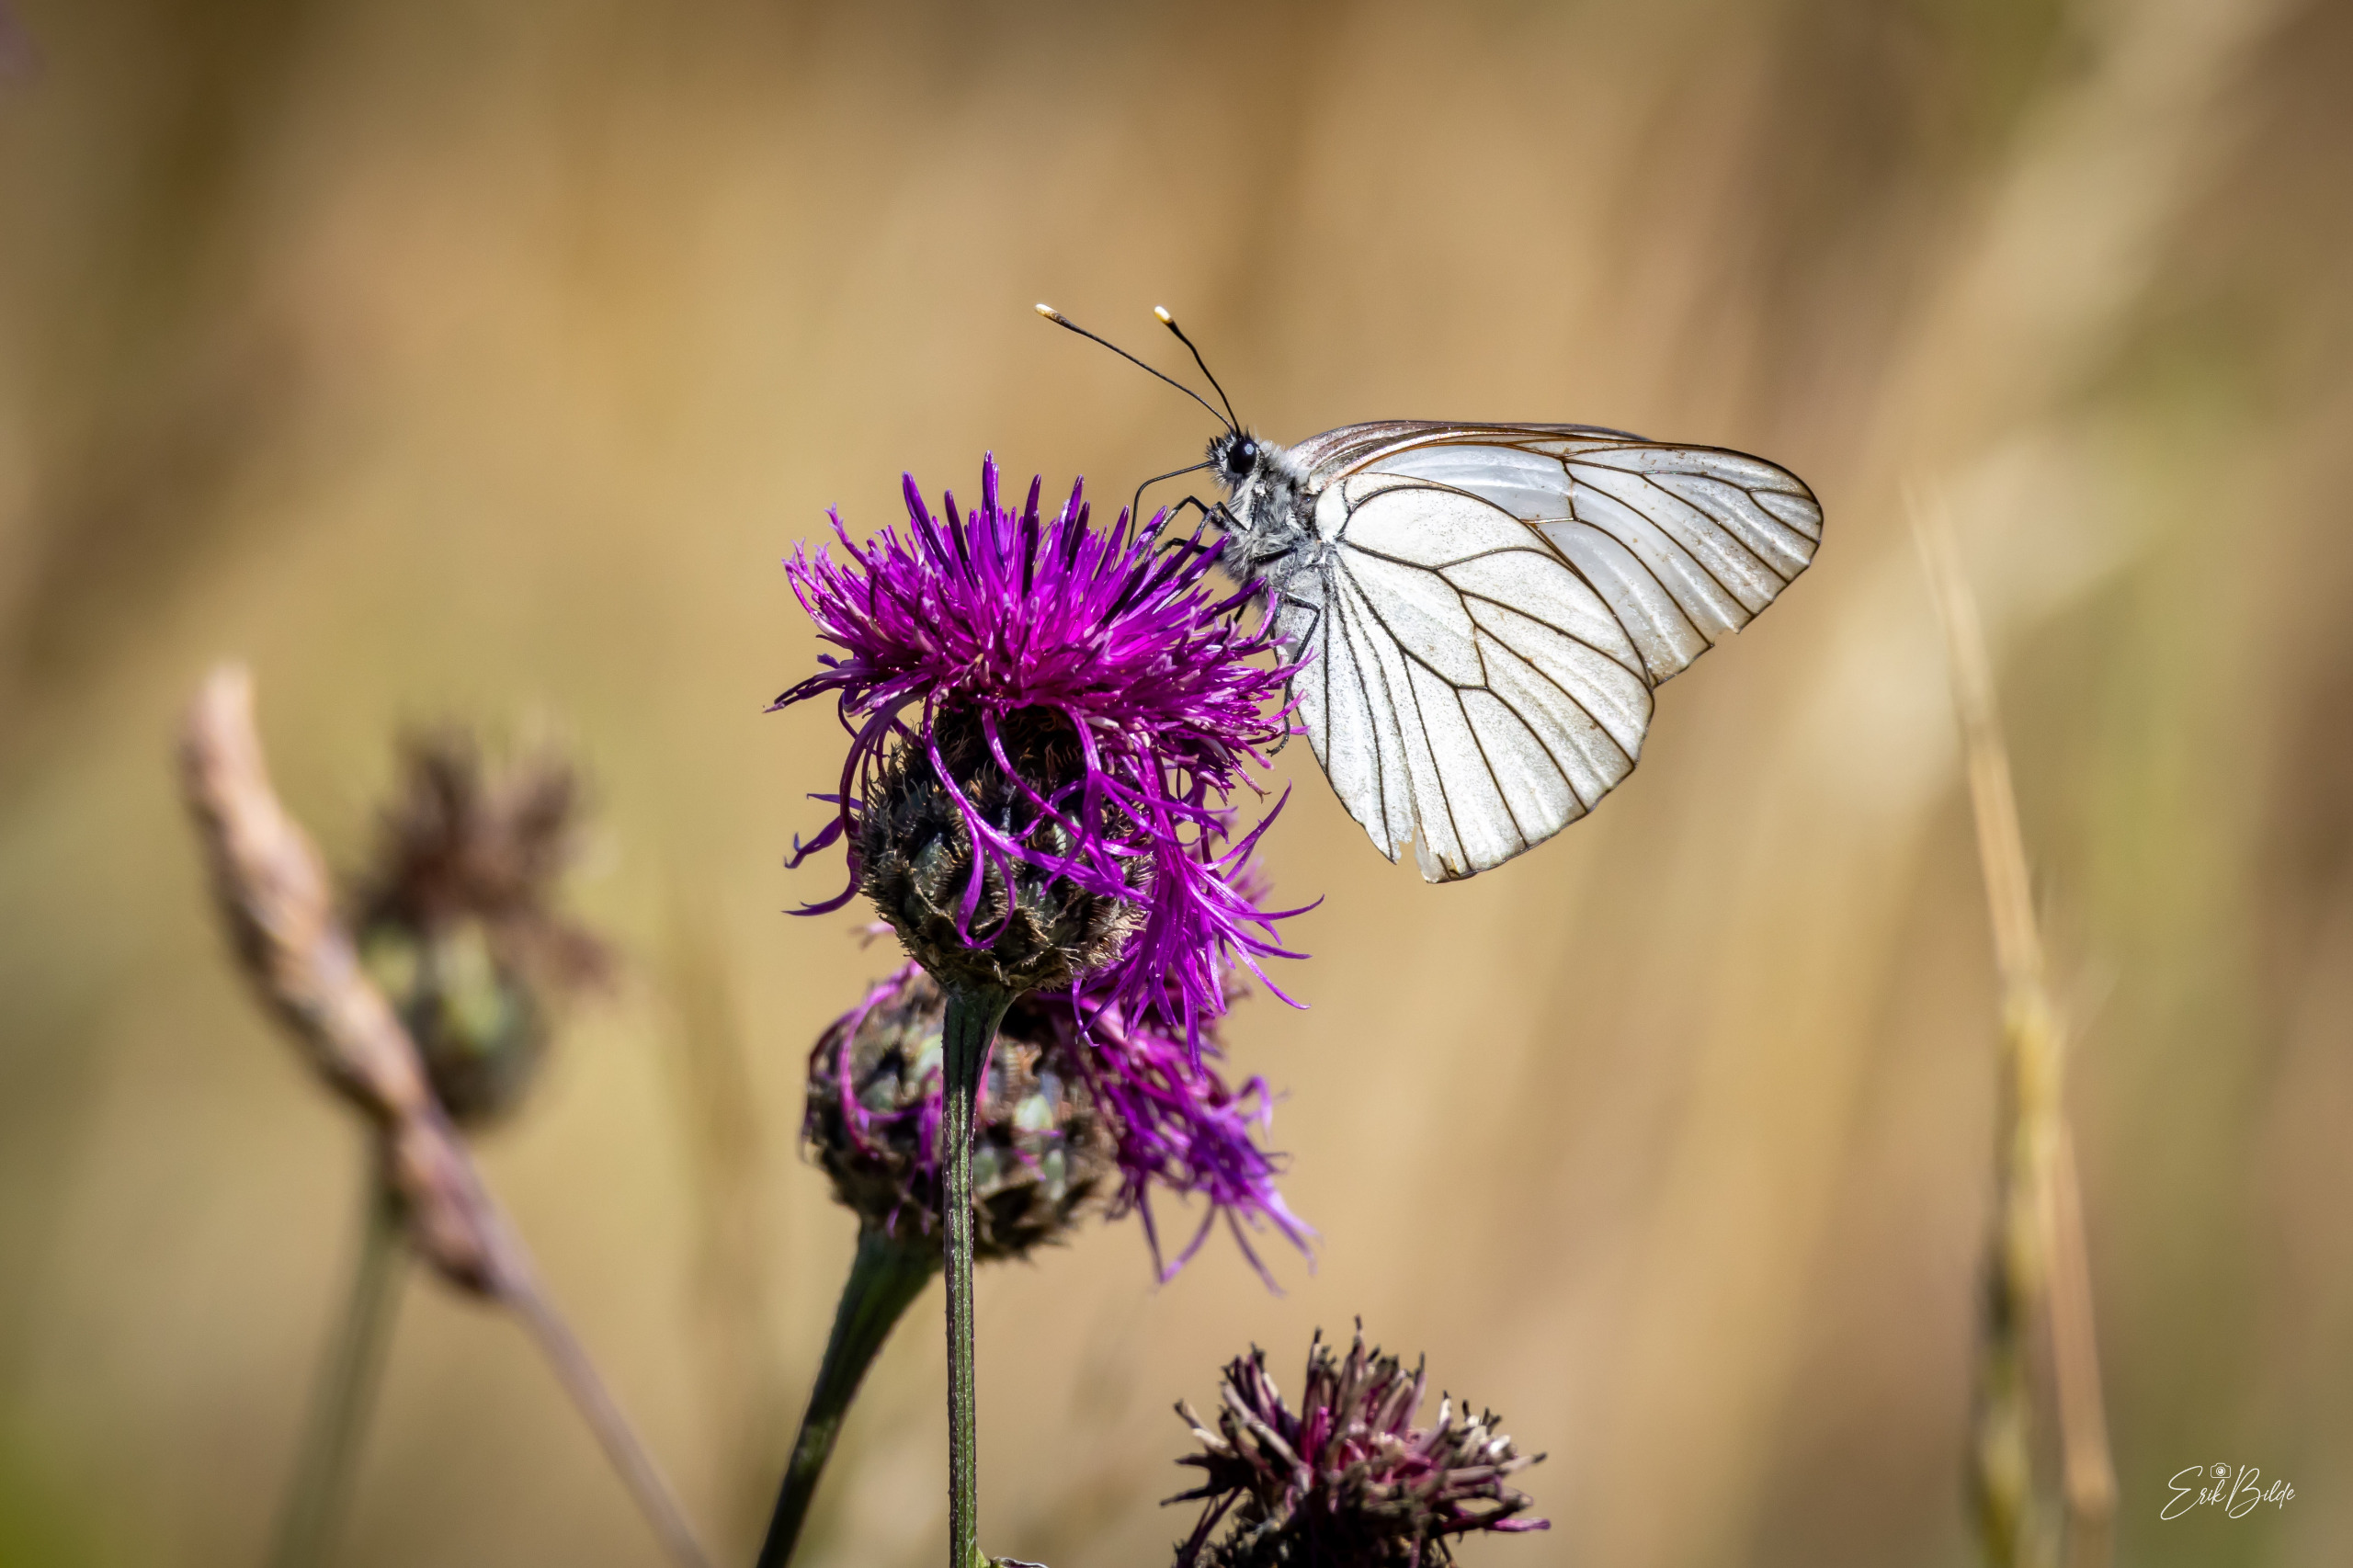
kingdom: Animalia
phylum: Arthropoda
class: Insecta
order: Lepidoptera
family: Pieridae
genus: Aporia
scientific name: Aporia crataegi
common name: Sortåret hvidvinge
